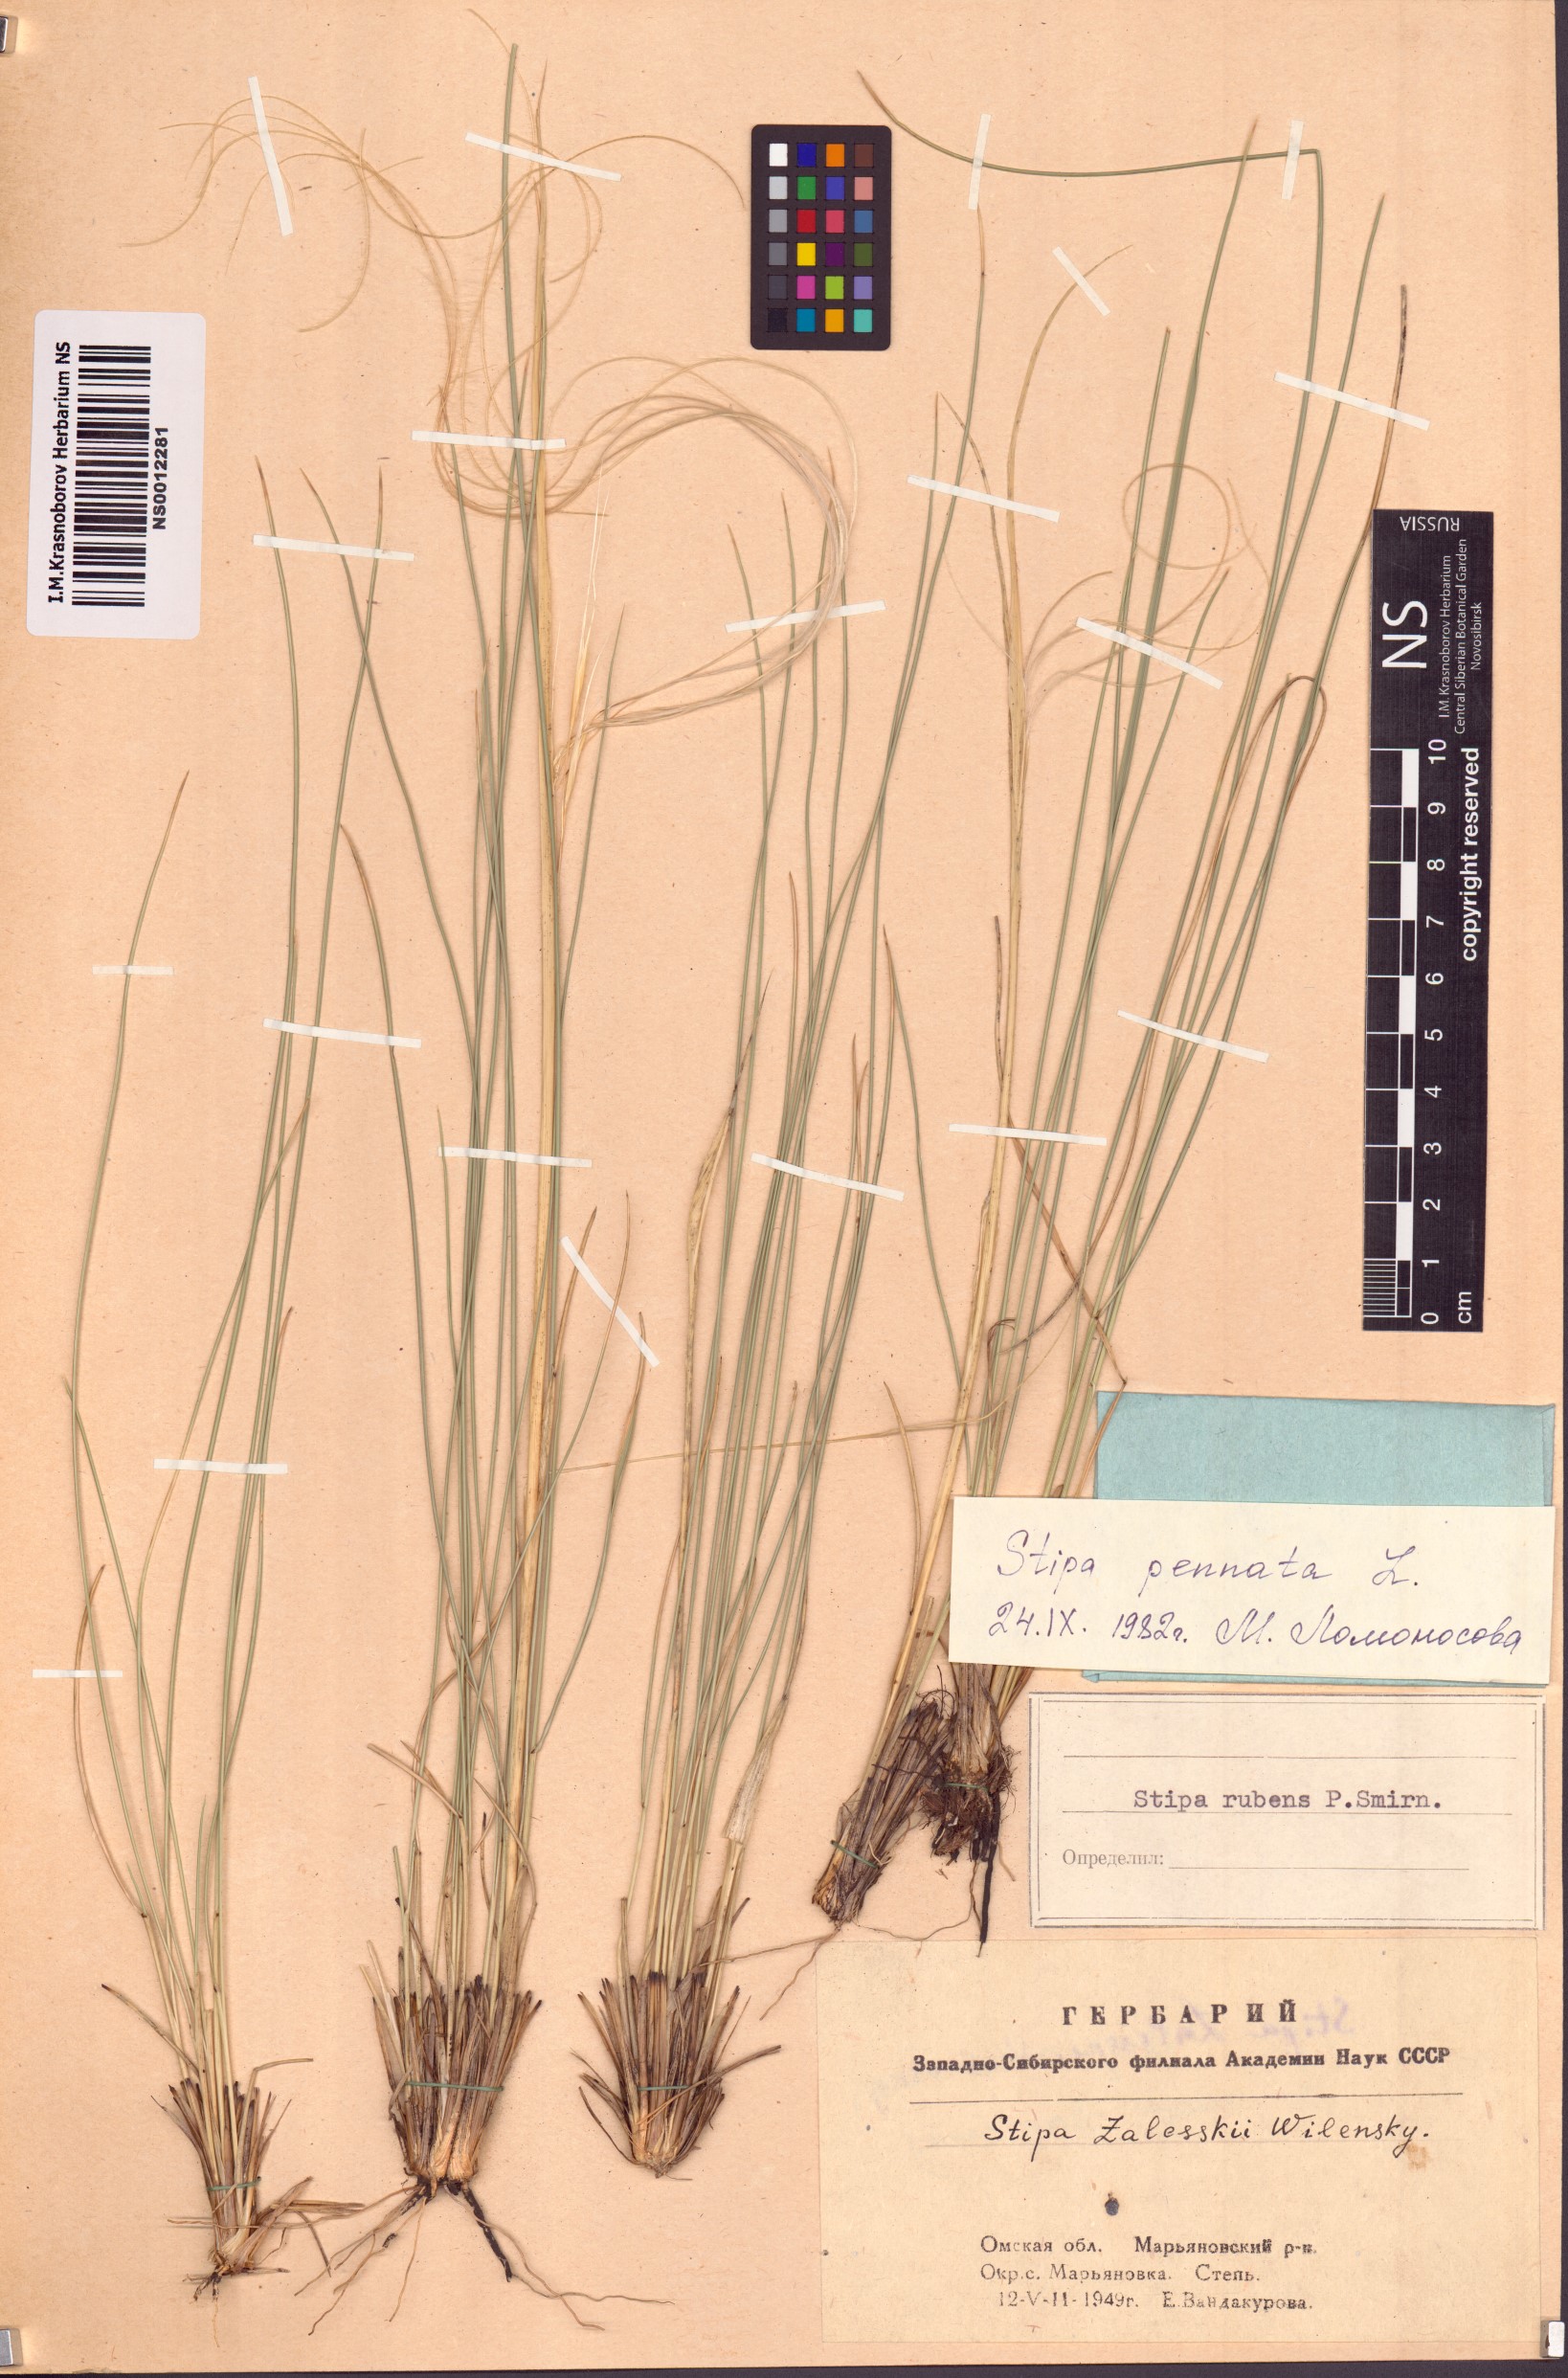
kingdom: Plantae
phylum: Tracheophyta
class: Liliopsida
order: Poales
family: Poaceae
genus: Stipa
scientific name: Stipa pennata
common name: European feather grass
